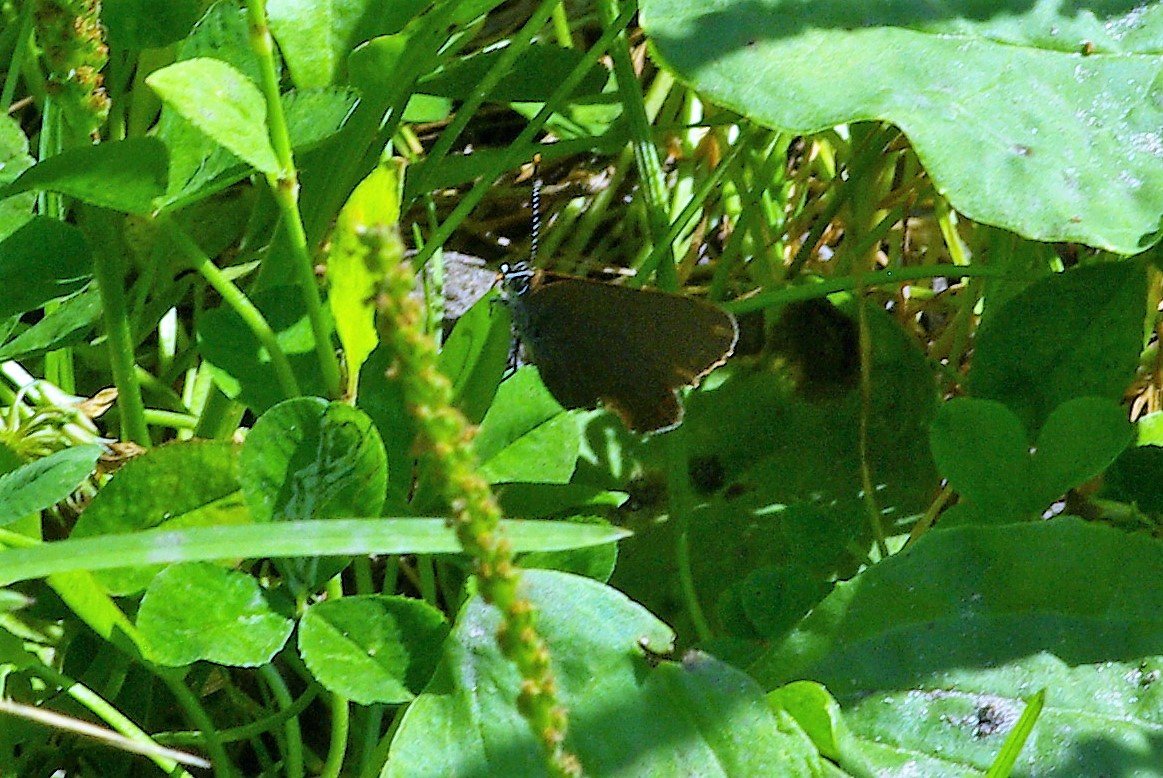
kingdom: Animalia
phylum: Arthropoda
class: Insecta
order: Lepidoptera
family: Lycaenidae
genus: Satyrium
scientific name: Satyrium
